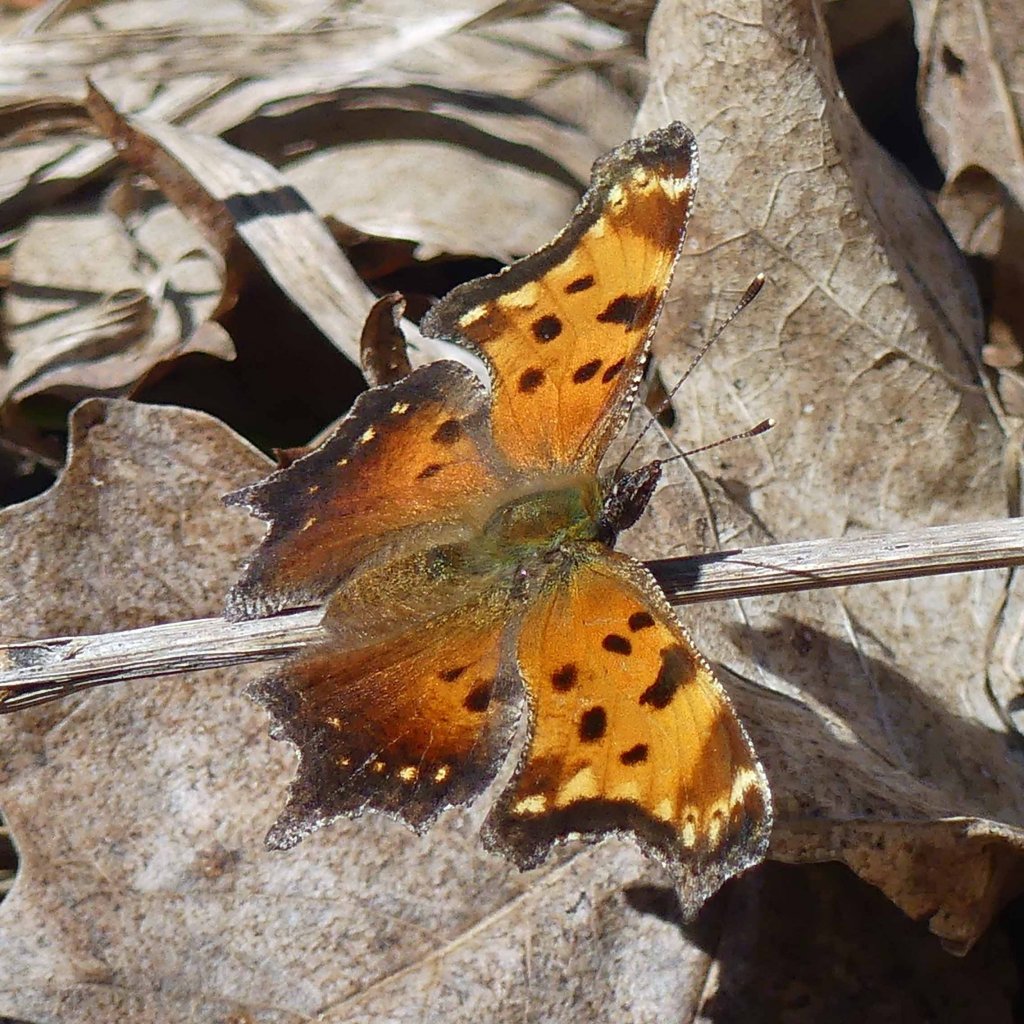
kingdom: Animalia
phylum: Arthropoda
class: Insecta
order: Lepidoptera
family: Nymphalidae
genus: Polygonia
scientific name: Polygonia progne
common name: Gray Comma
